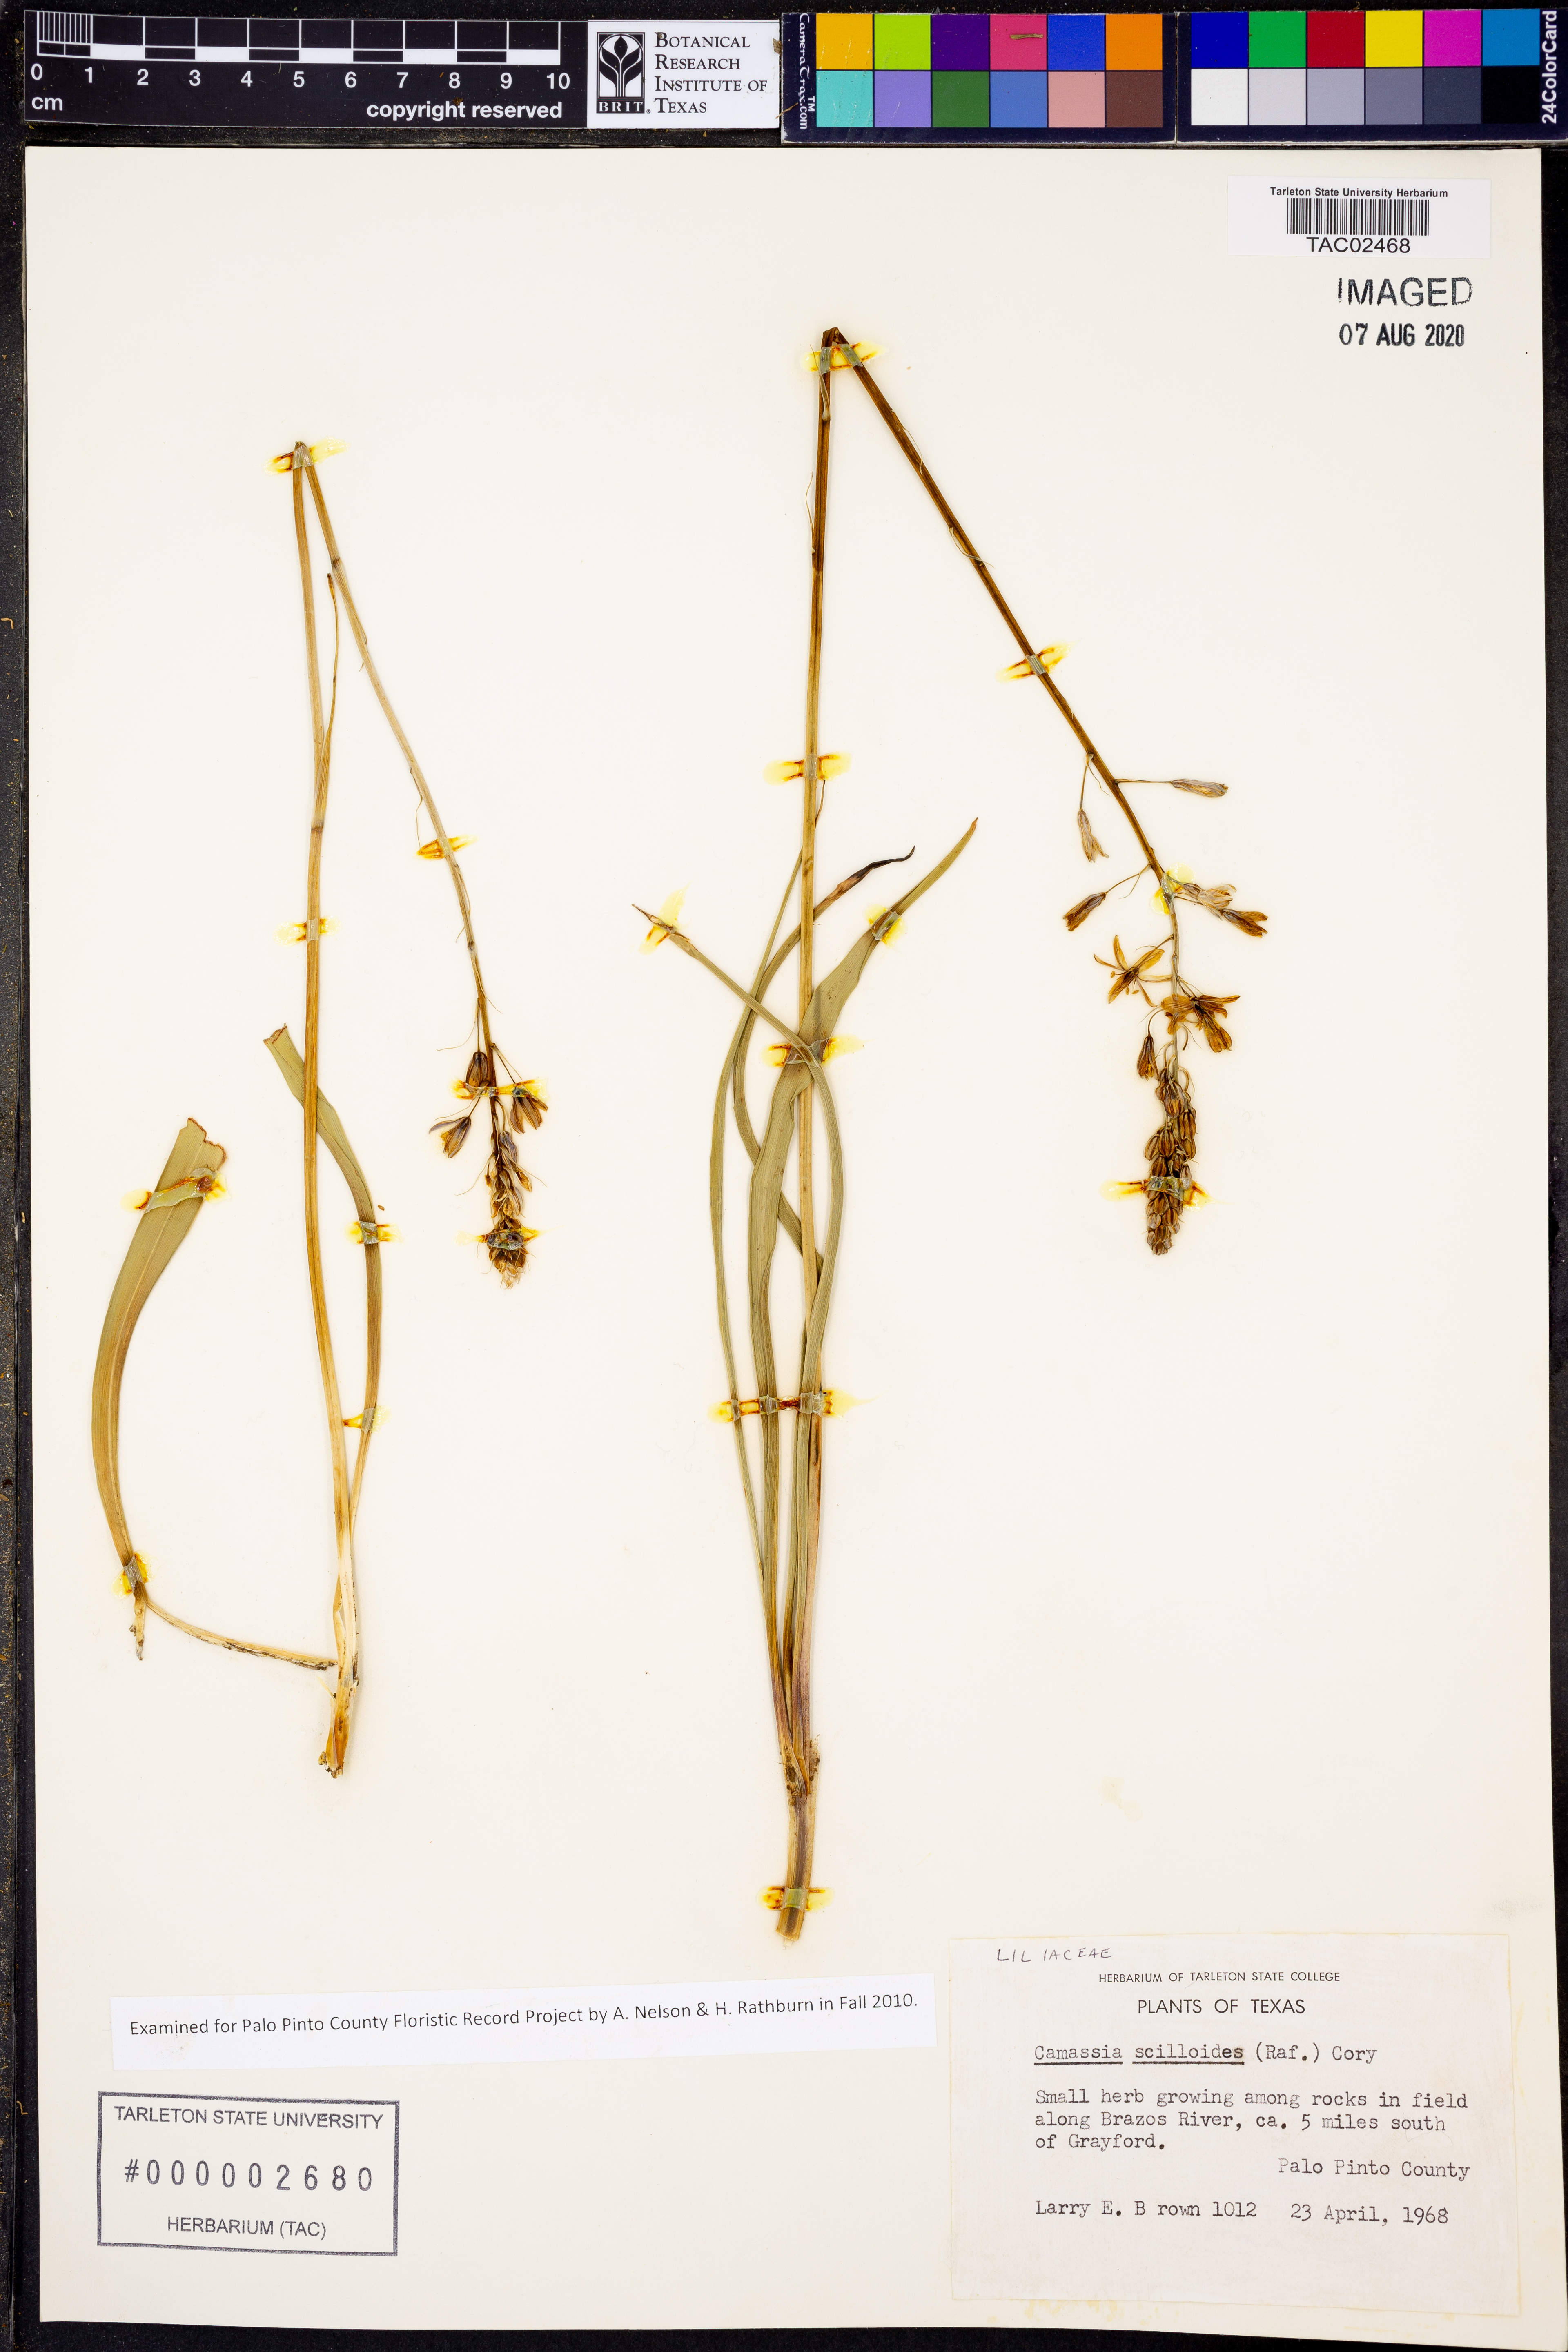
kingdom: Plantae
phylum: Tracheophyta
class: Liliopsida
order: Asparagales
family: Asparagaceae
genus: Camassia
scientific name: Camassia scilloides
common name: Wild hyacinth
